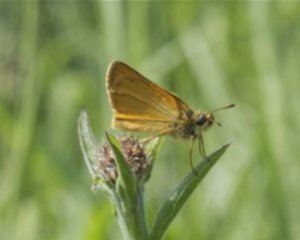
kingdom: Animalia
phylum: Arthropoda
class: Insecta
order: Lepidoptera
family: Hesperiidae
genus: Ancyloxypha
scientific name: Ancyloxypha numitor
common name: Least Skipper
